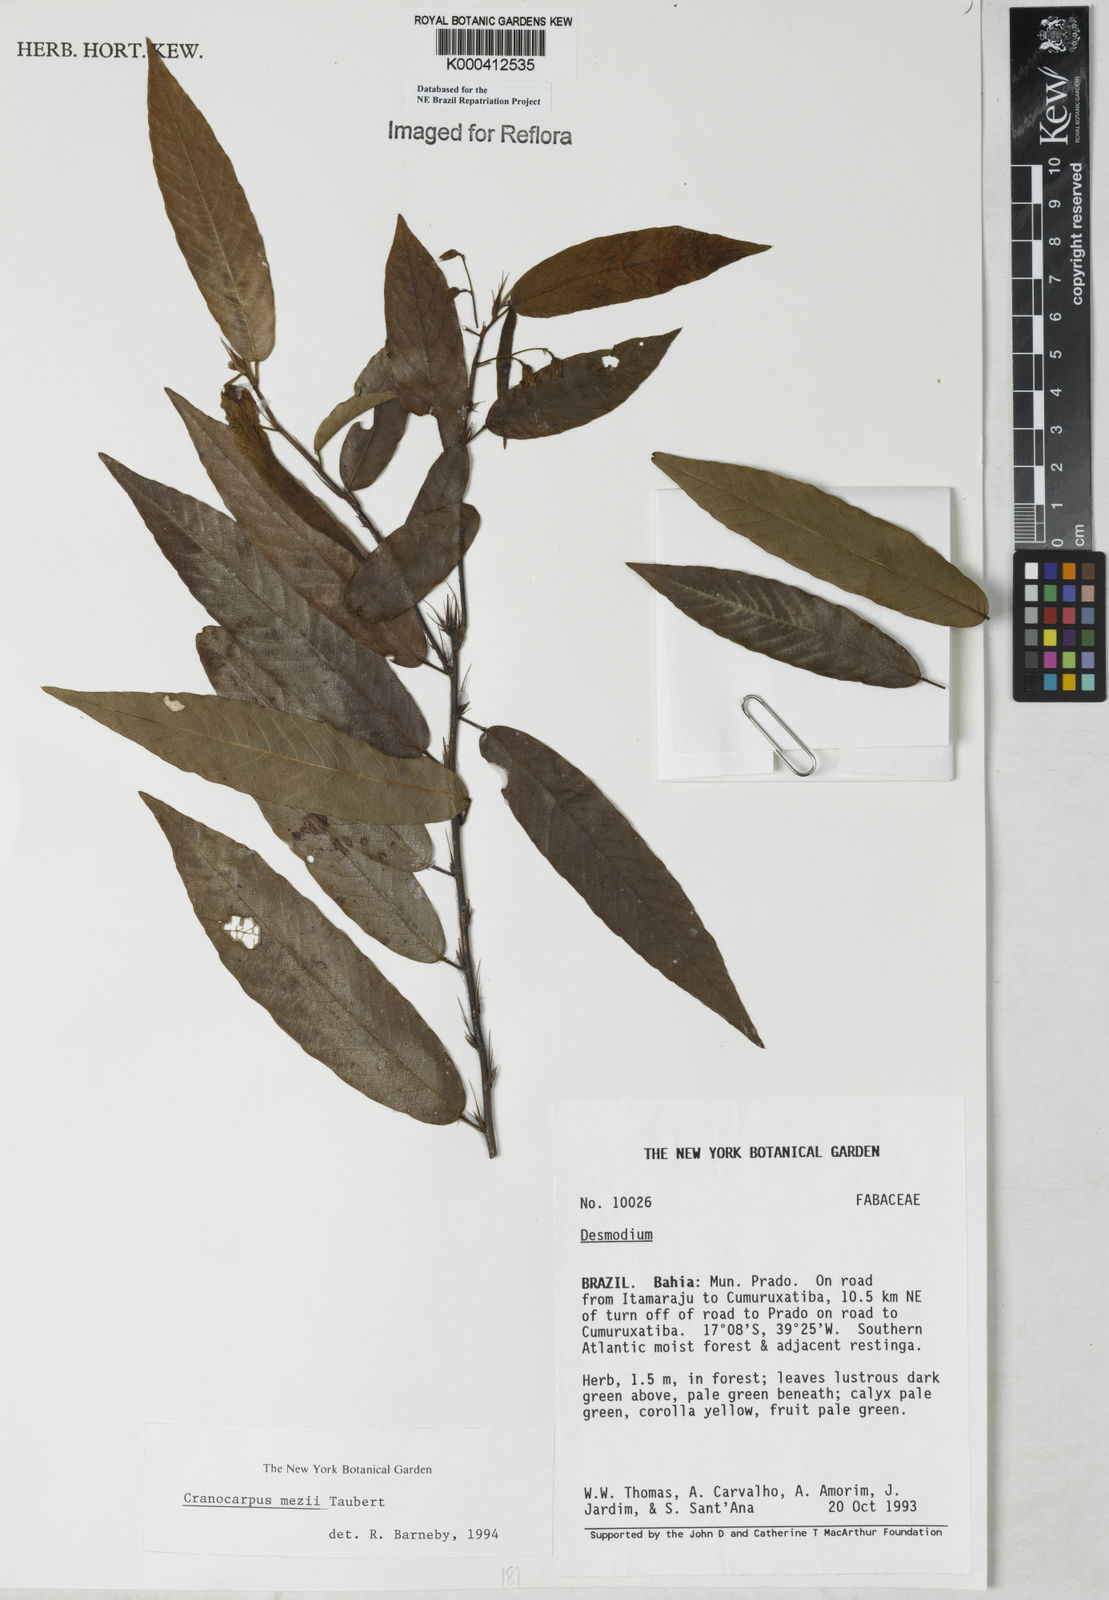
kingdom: Plantae
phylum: Tracheophyta
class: Magnoliopsida
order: Fabales
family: Fabaceae
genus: Cranocarpus
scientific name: Cranocarpus mezii
